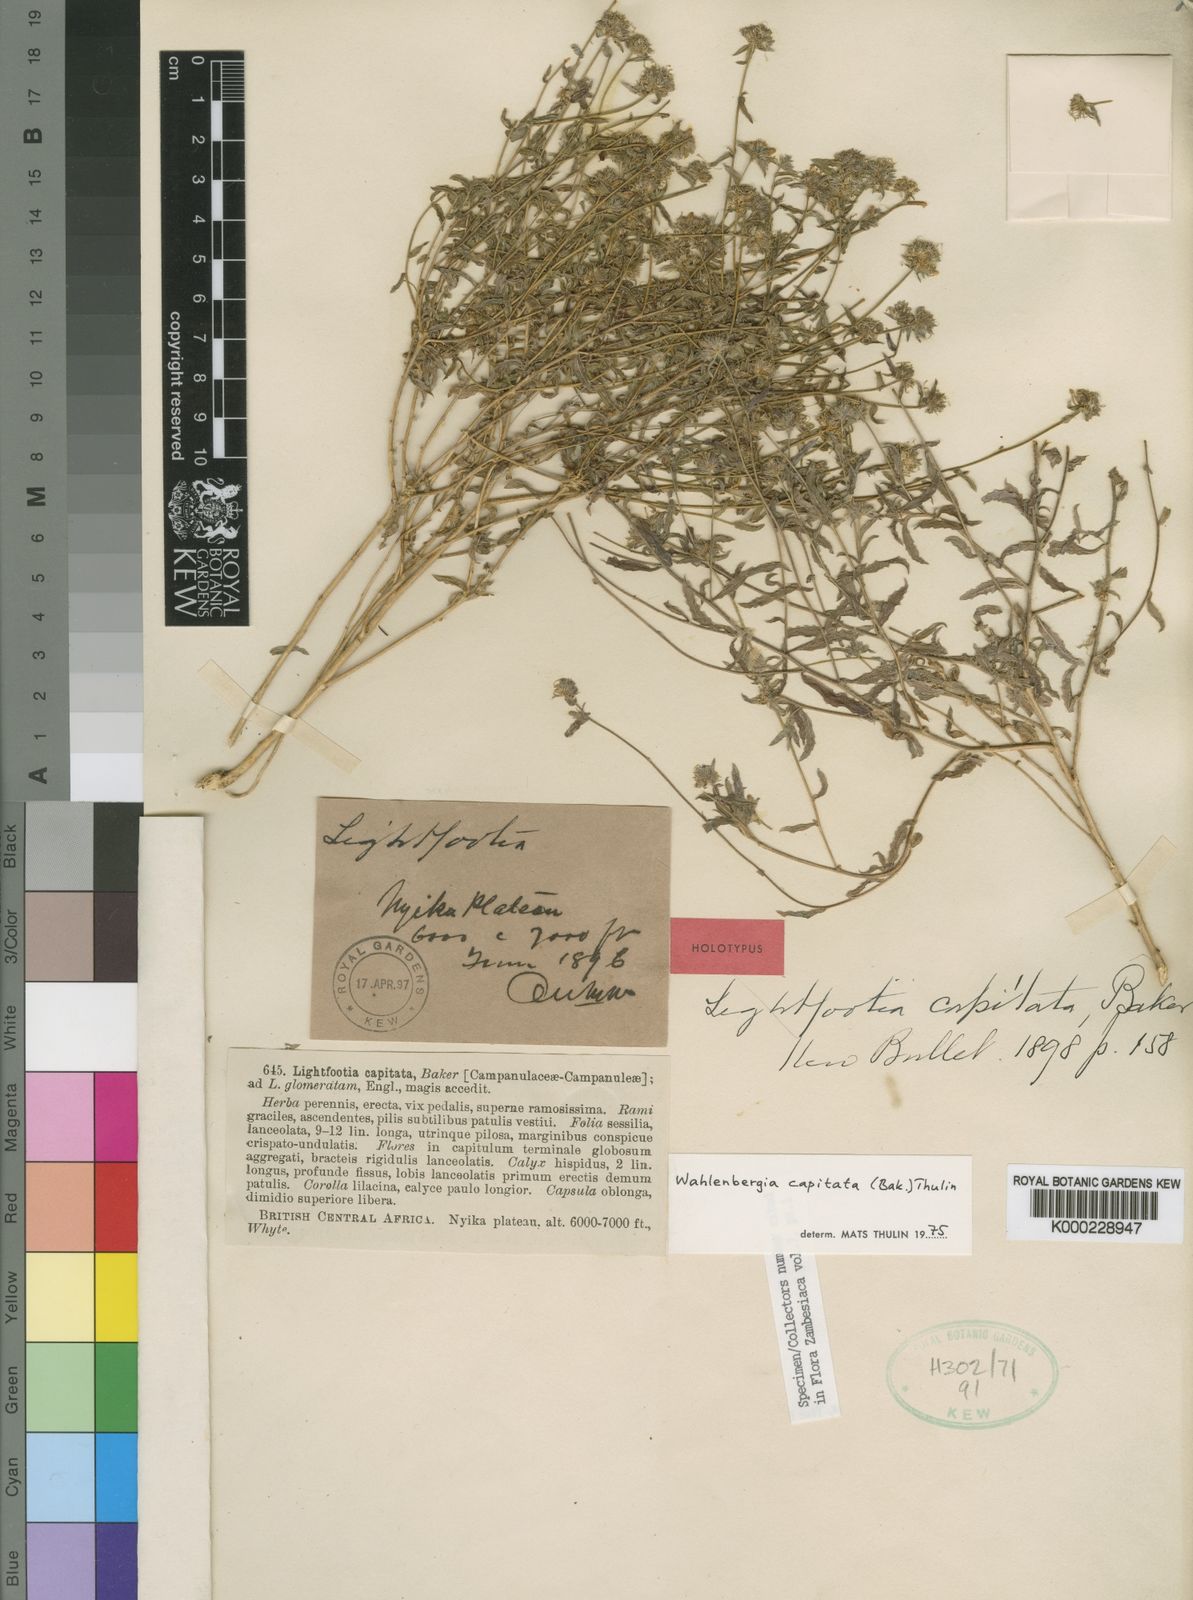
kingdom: Plantae
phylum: Tracheophyta
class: Magnoliopsida
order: Asterales
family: Campanulaceae
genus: Wahlenbergia
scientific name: Wahlenbergia capitata
